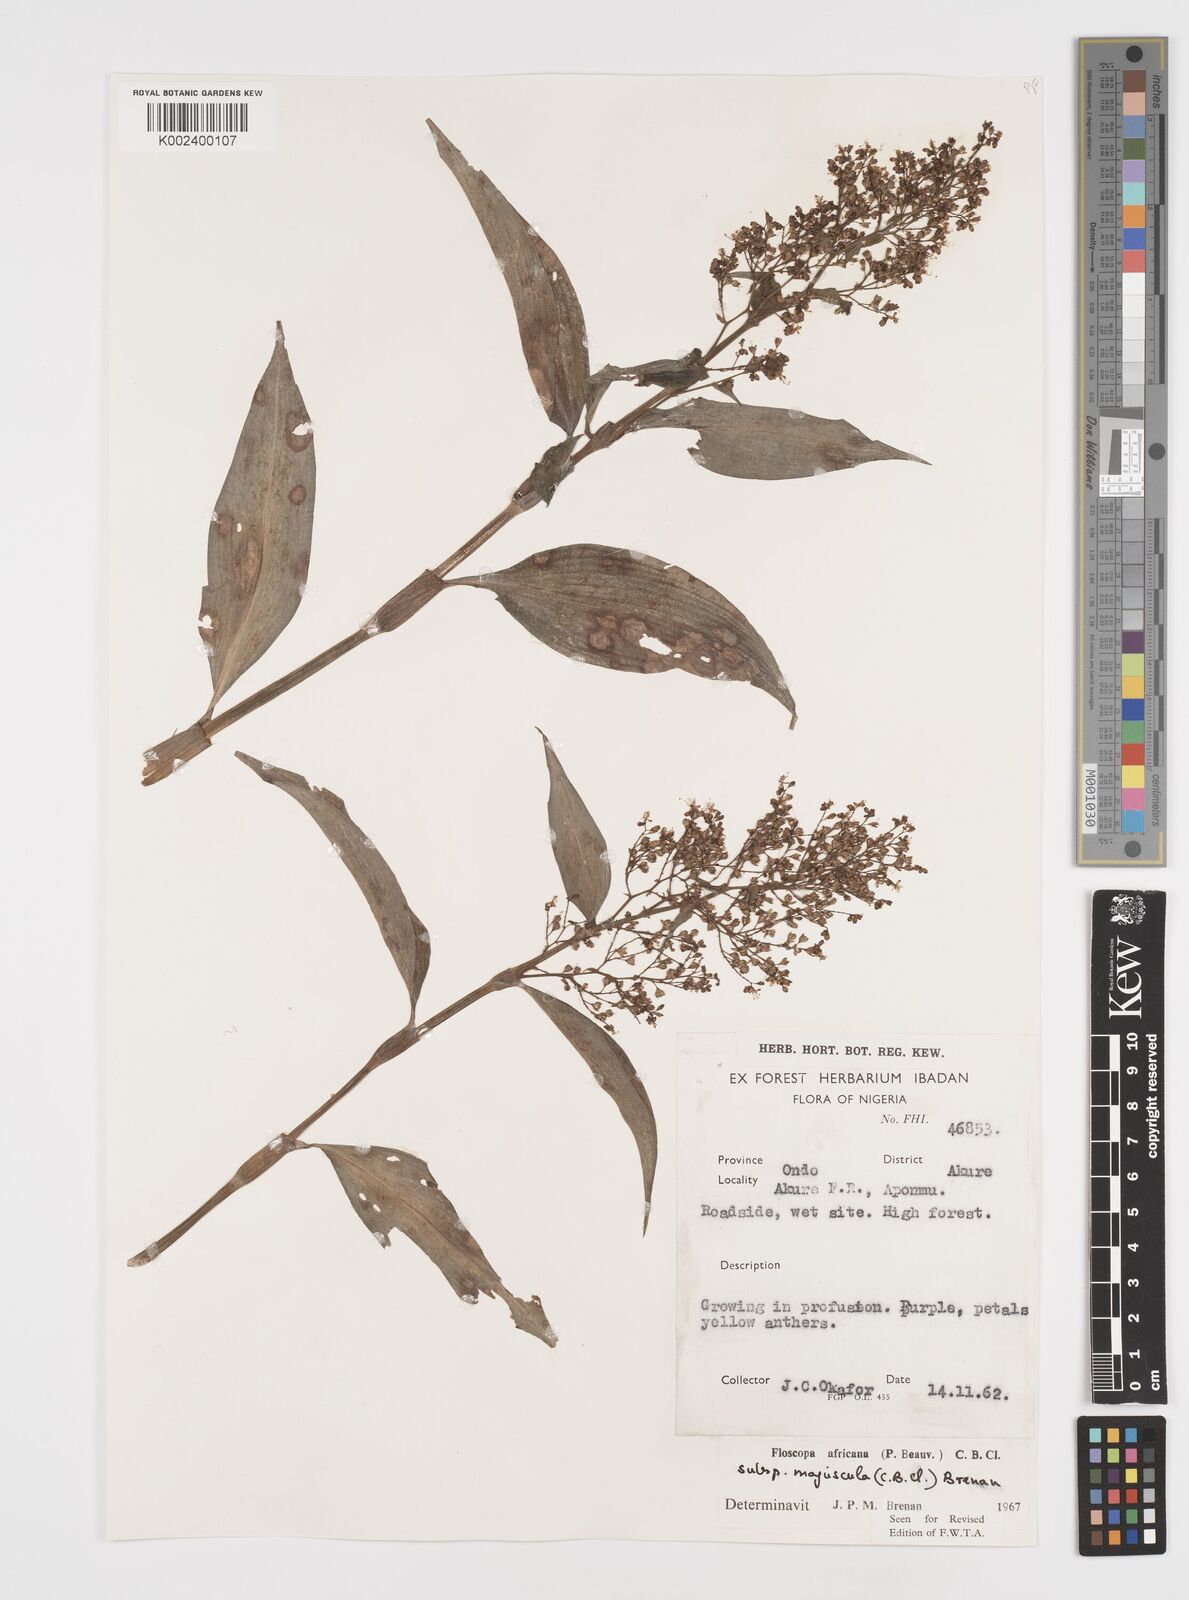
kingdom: Plantae
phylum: Tracheophyta
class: Liliopsida
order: Commelinales
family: Commelinaceae
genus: Floscopa
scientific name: Floscopa africana
